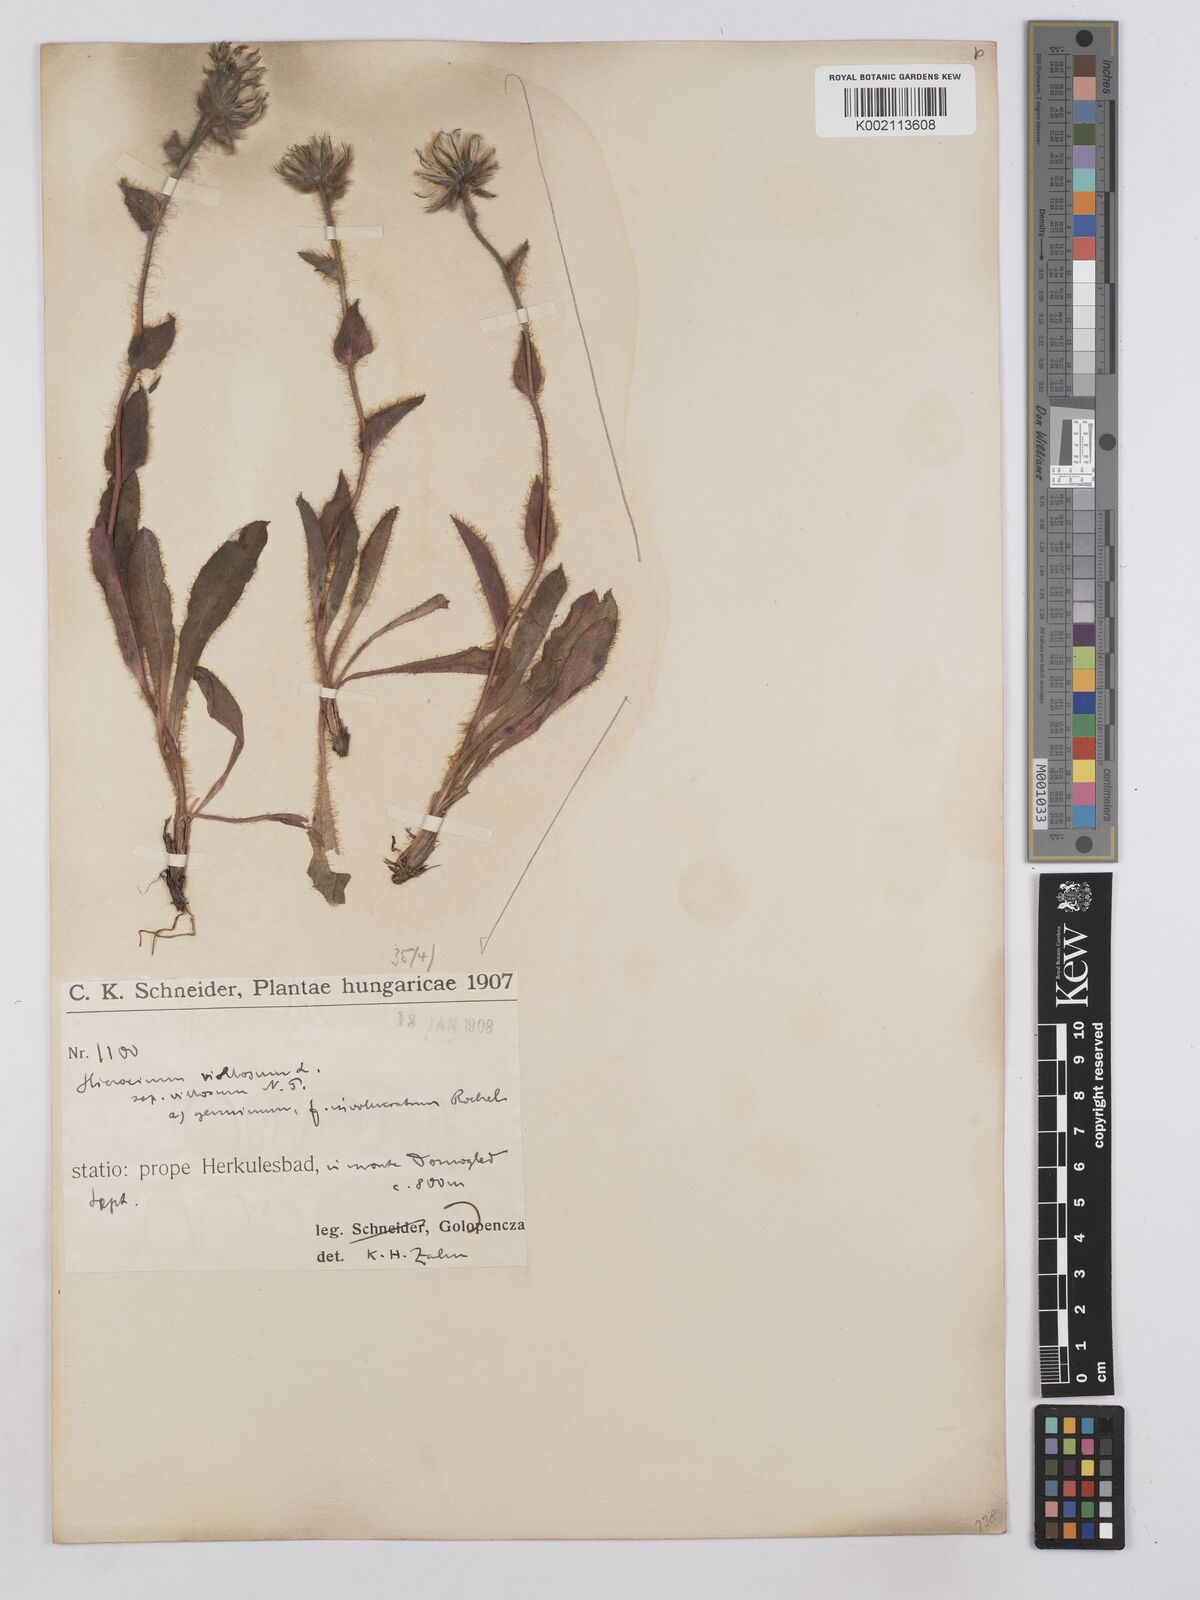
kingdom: Plantae
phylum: Tracheophyta
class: Magnoliopsida
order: Asterales
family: Asteraceae
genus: Hieracium
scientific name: Hieracium villosum
